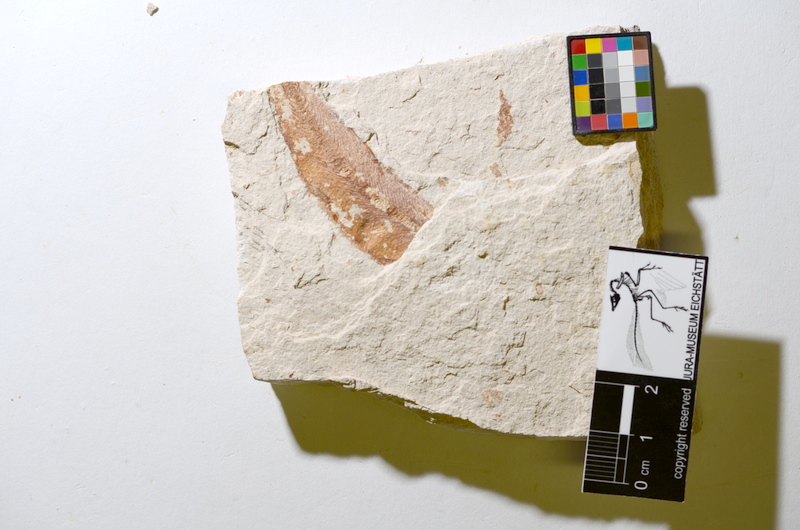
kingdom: Animalia
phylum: Chordata
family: Ascalaboidae
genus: Tharsis
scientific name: Tharsis dubius
